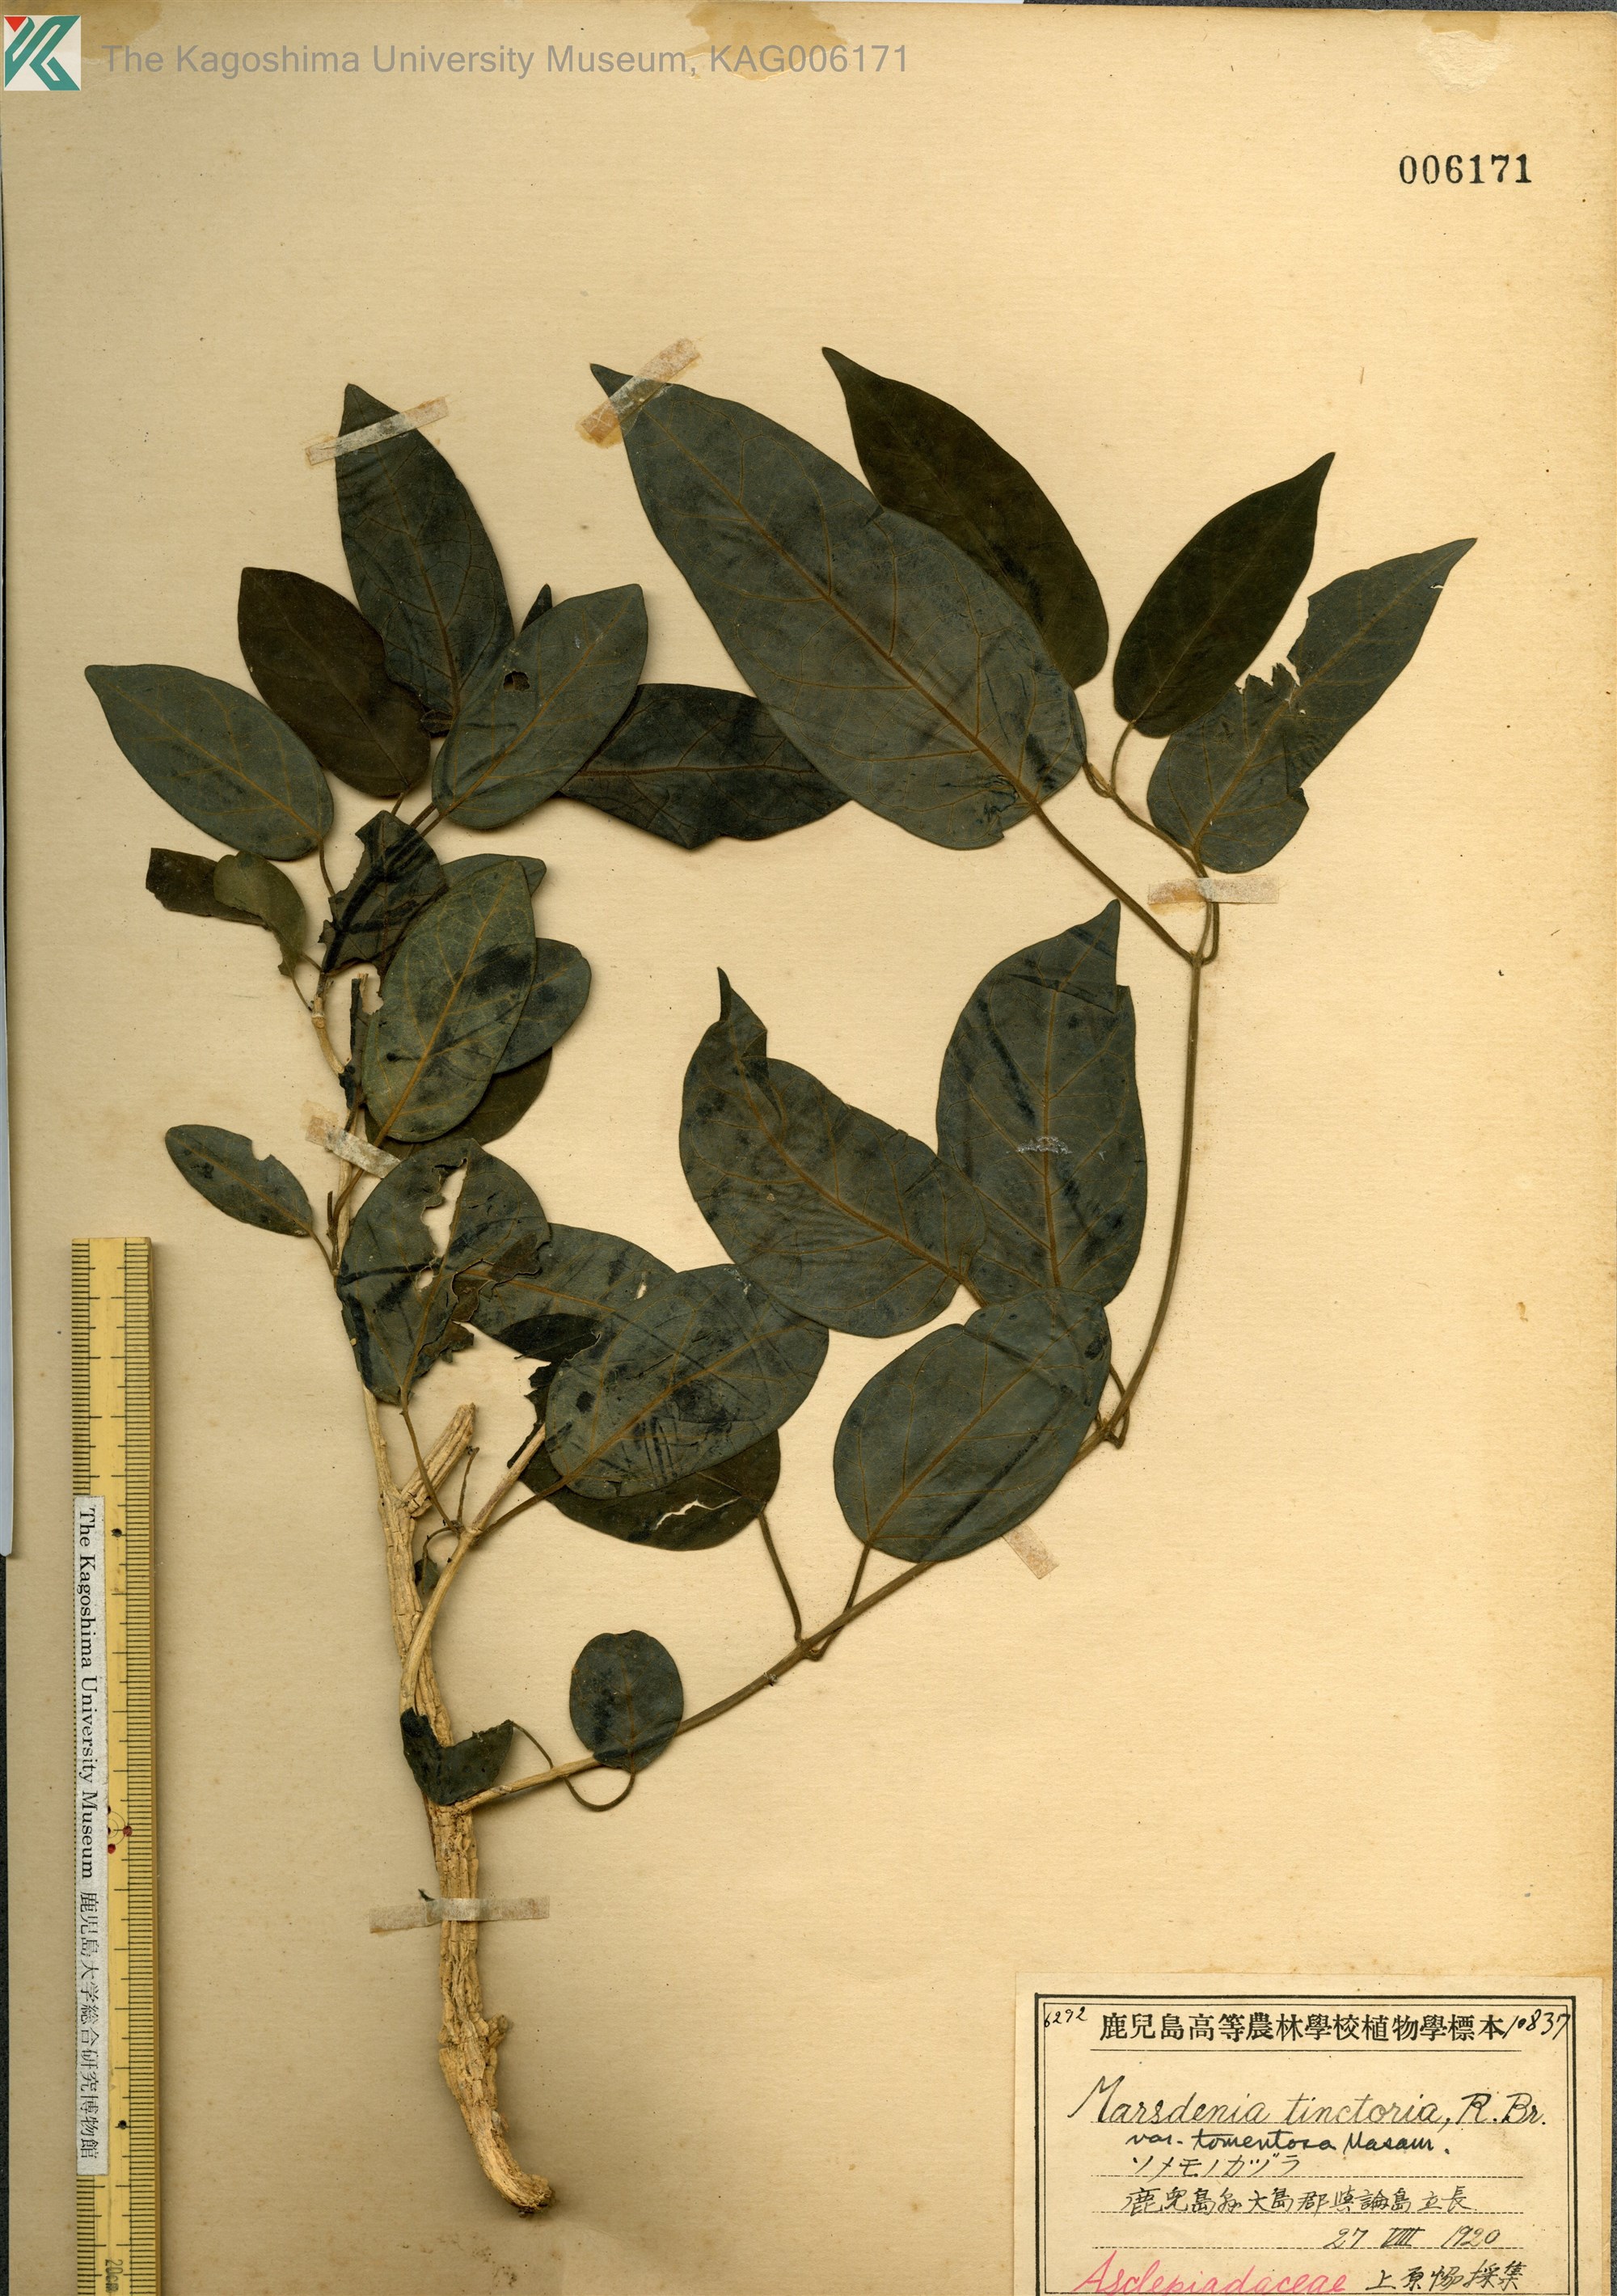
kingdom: Plantae
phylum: Tracheophyta
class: Magnoliopsida
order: Gentianales
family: Apocynaceae
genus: Marsdenia
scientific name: Marsdenia tinctoria
